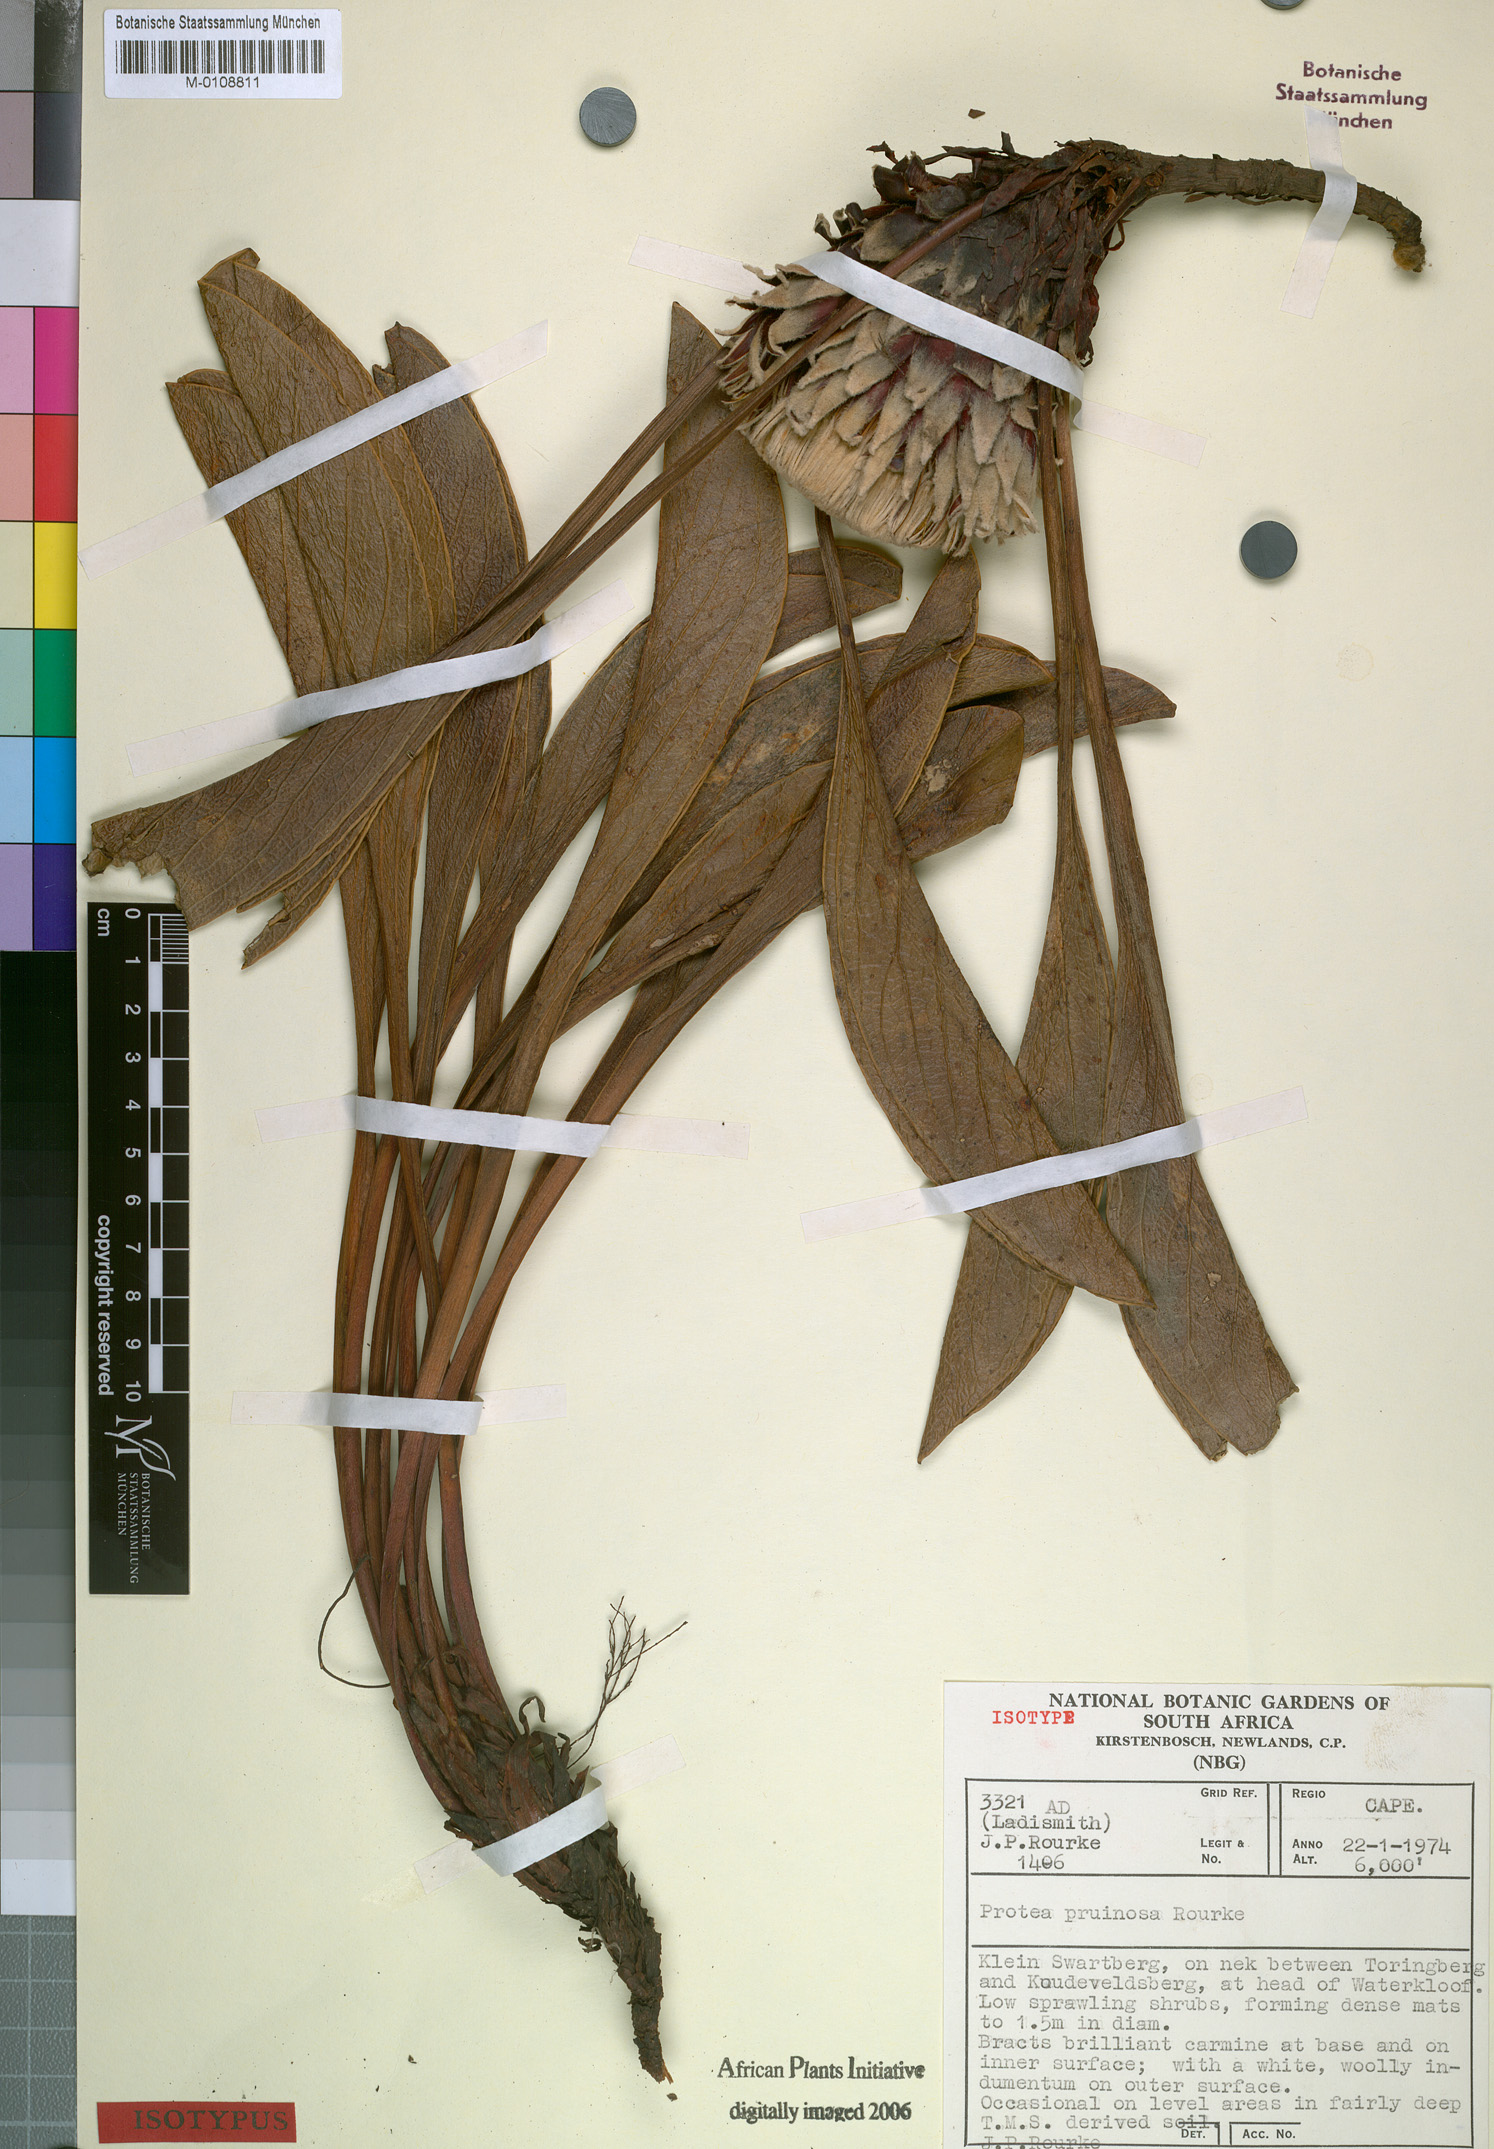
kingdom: Plantae
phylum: Tracheophyta
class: Magnoliopsida
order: Proteales
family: Proteaceae
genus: Protea
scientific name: Protea pruinosa
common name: Frosted sugarbush
